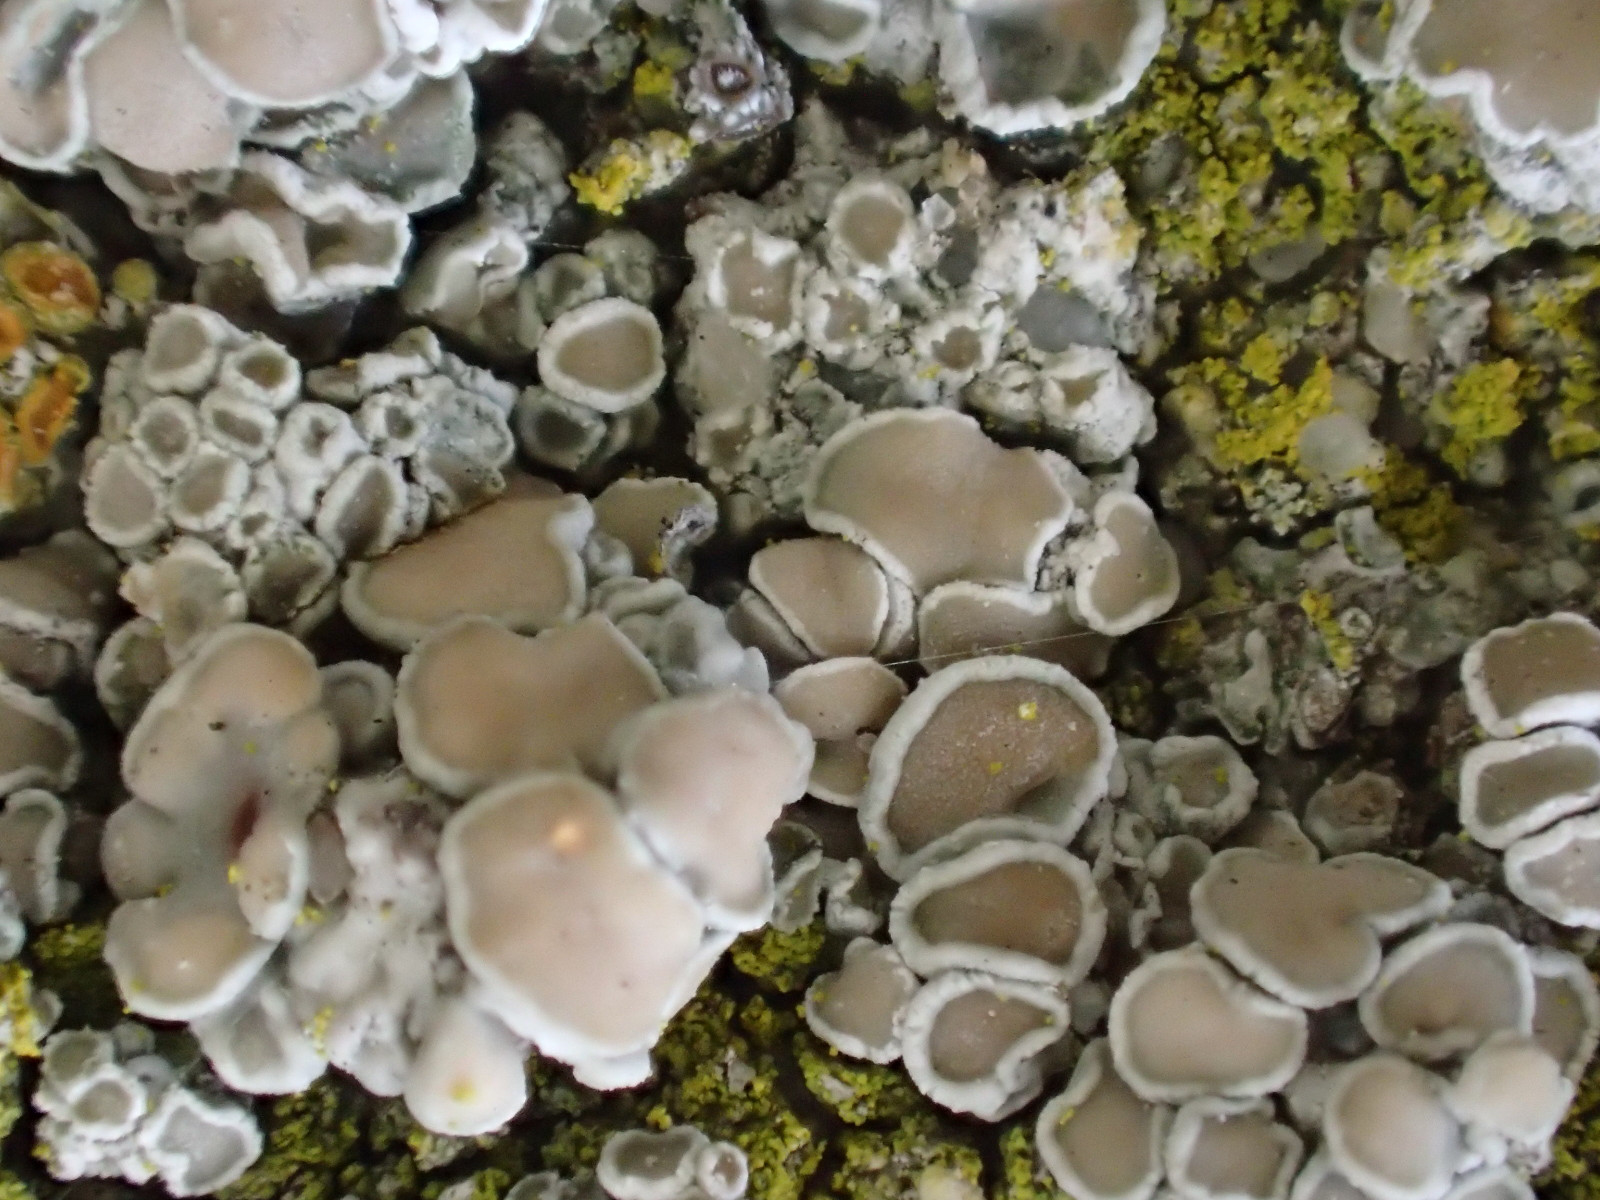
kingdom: Fungi
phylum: Ascomycota
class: Lecanoromycetes
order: Lecanorales
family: Lecanoraceae
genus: Polyozosia
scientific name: Polyozosia albescens
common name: cement-kantskivelav
